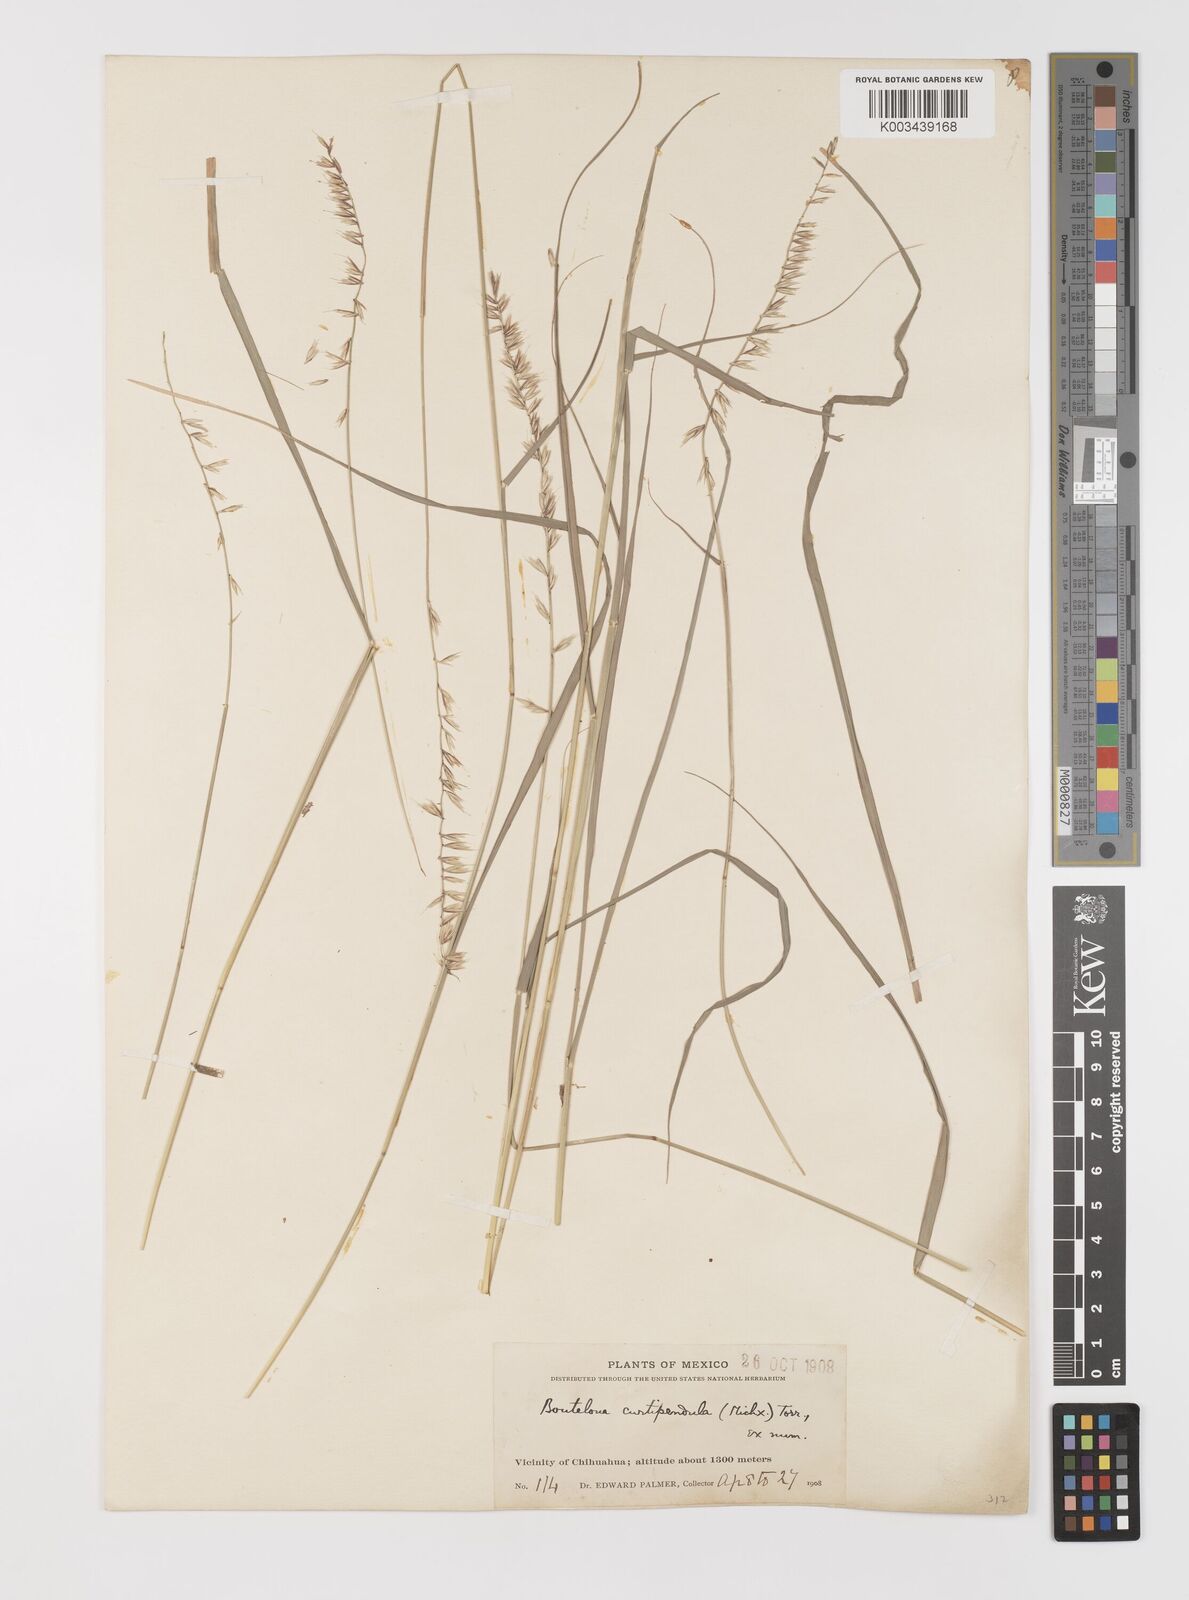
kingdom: Plantae
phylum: Tracheophyta
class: Liliopsida
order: Poales
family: Poaceae
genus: Bouteloua
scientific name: Bouteloua curtipendula
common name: Side-oats grama
